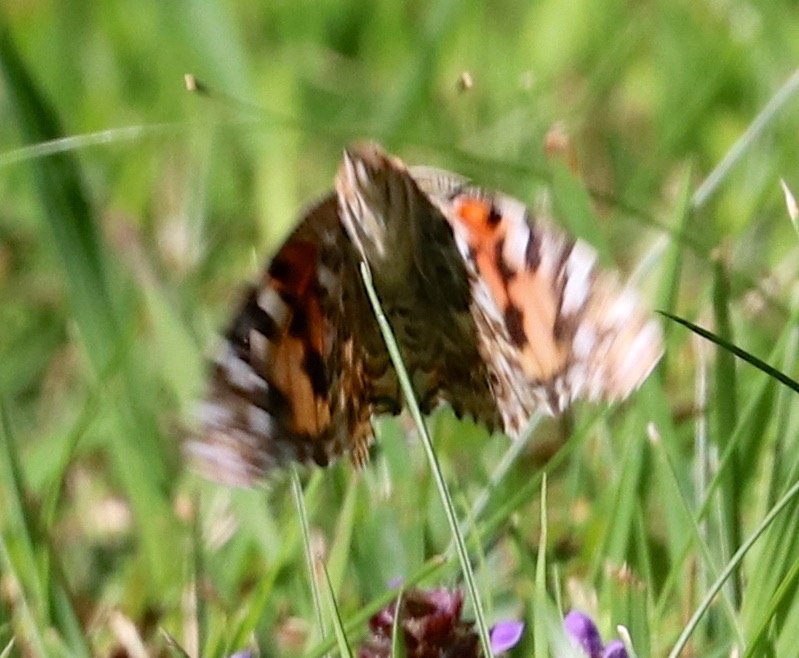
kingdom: Animalia
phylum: Arthropoda
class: Insecta
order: Lepidoptera
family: Nymphalidae
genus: Vanessa
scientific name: Vanessa cardui
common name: Painted Lady
